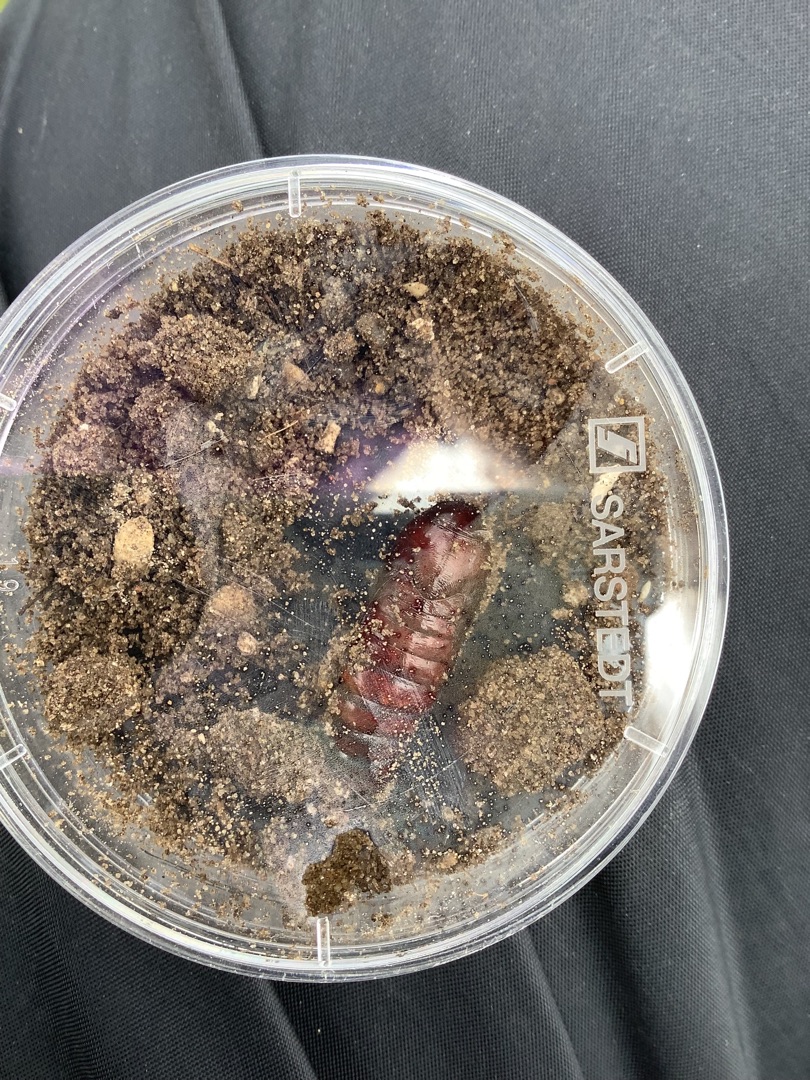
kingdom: Animalia
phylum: Arthropoda
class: Insecta
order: Lepidoptera
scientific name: Lepidoptera
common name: Sommerfugle
